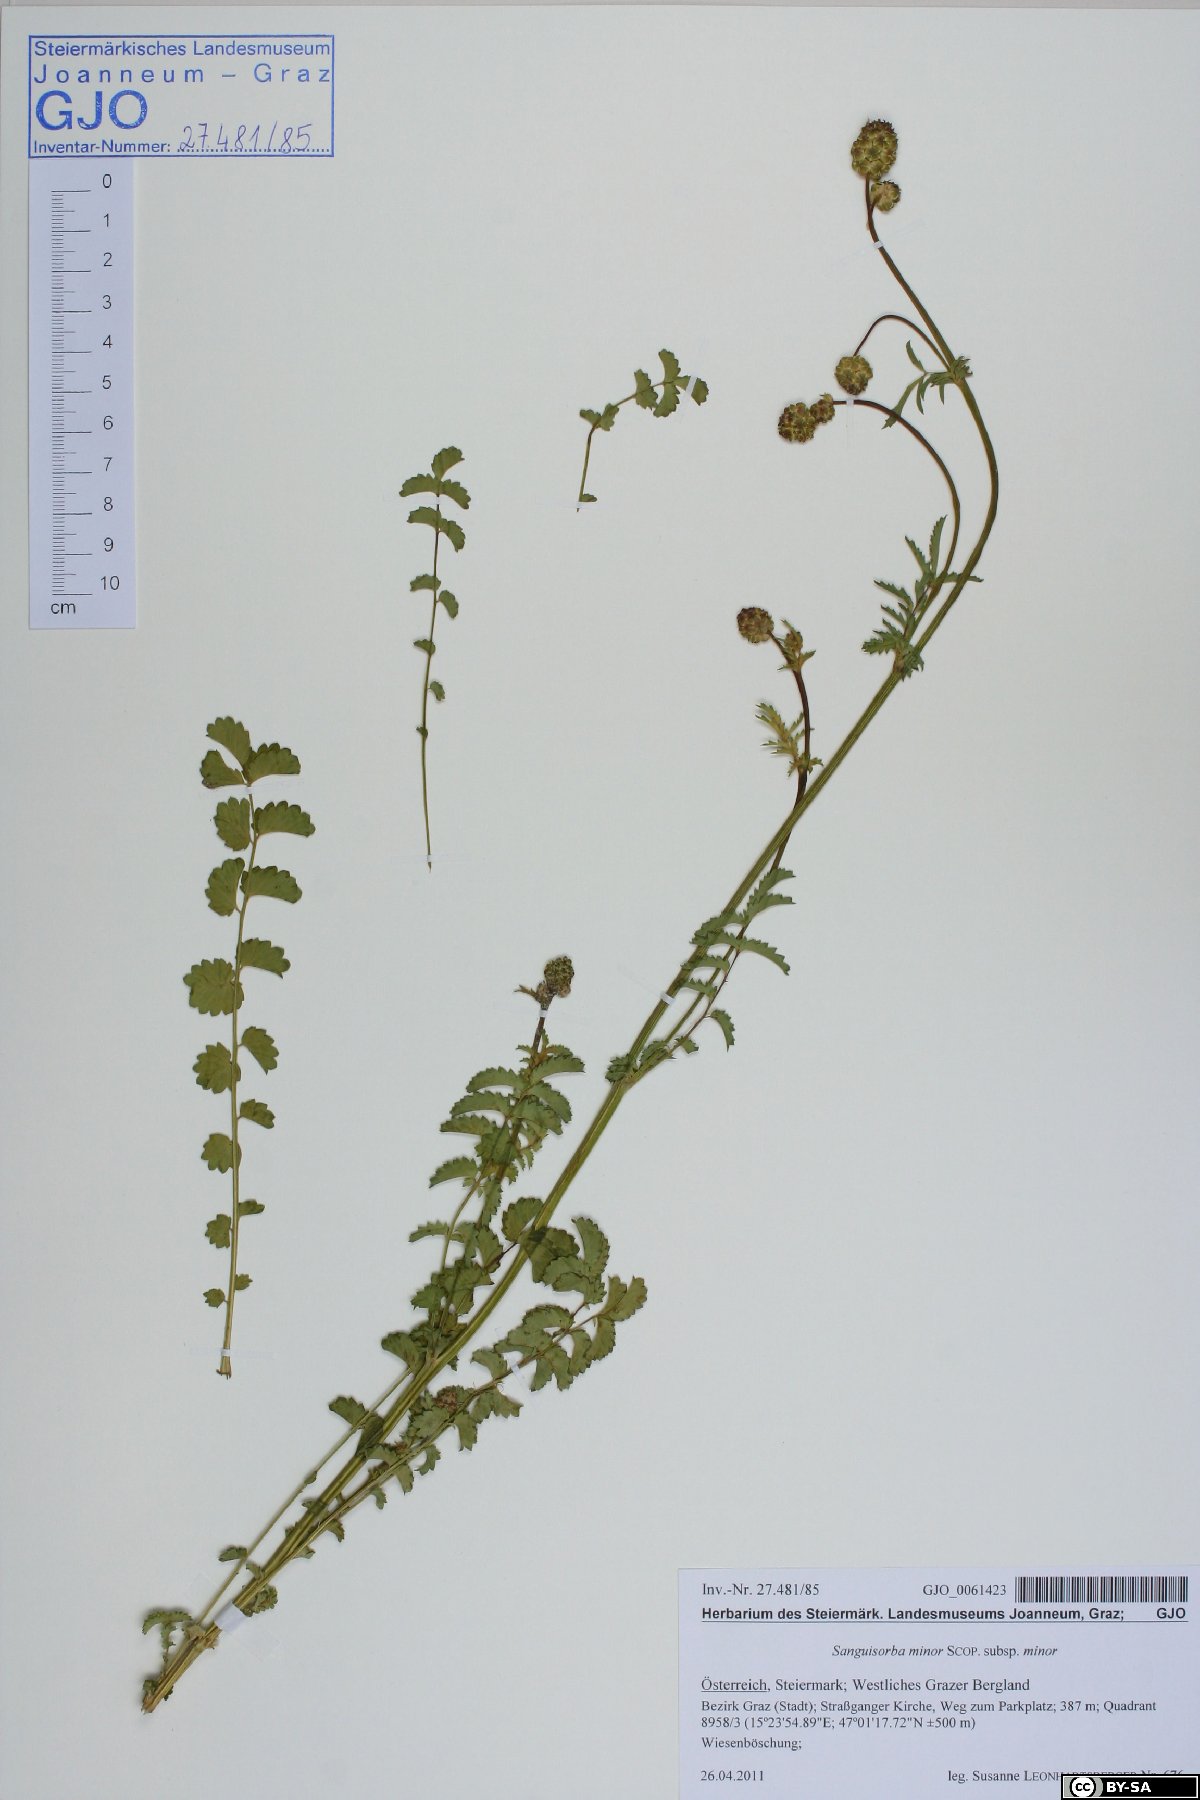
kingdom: Plantae
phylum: Tracheophyta
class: Magnoliopsida
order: Rosales
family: Rosaceae
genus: Poterium
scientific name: Poterium sanguisorba
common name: Salad burnet
